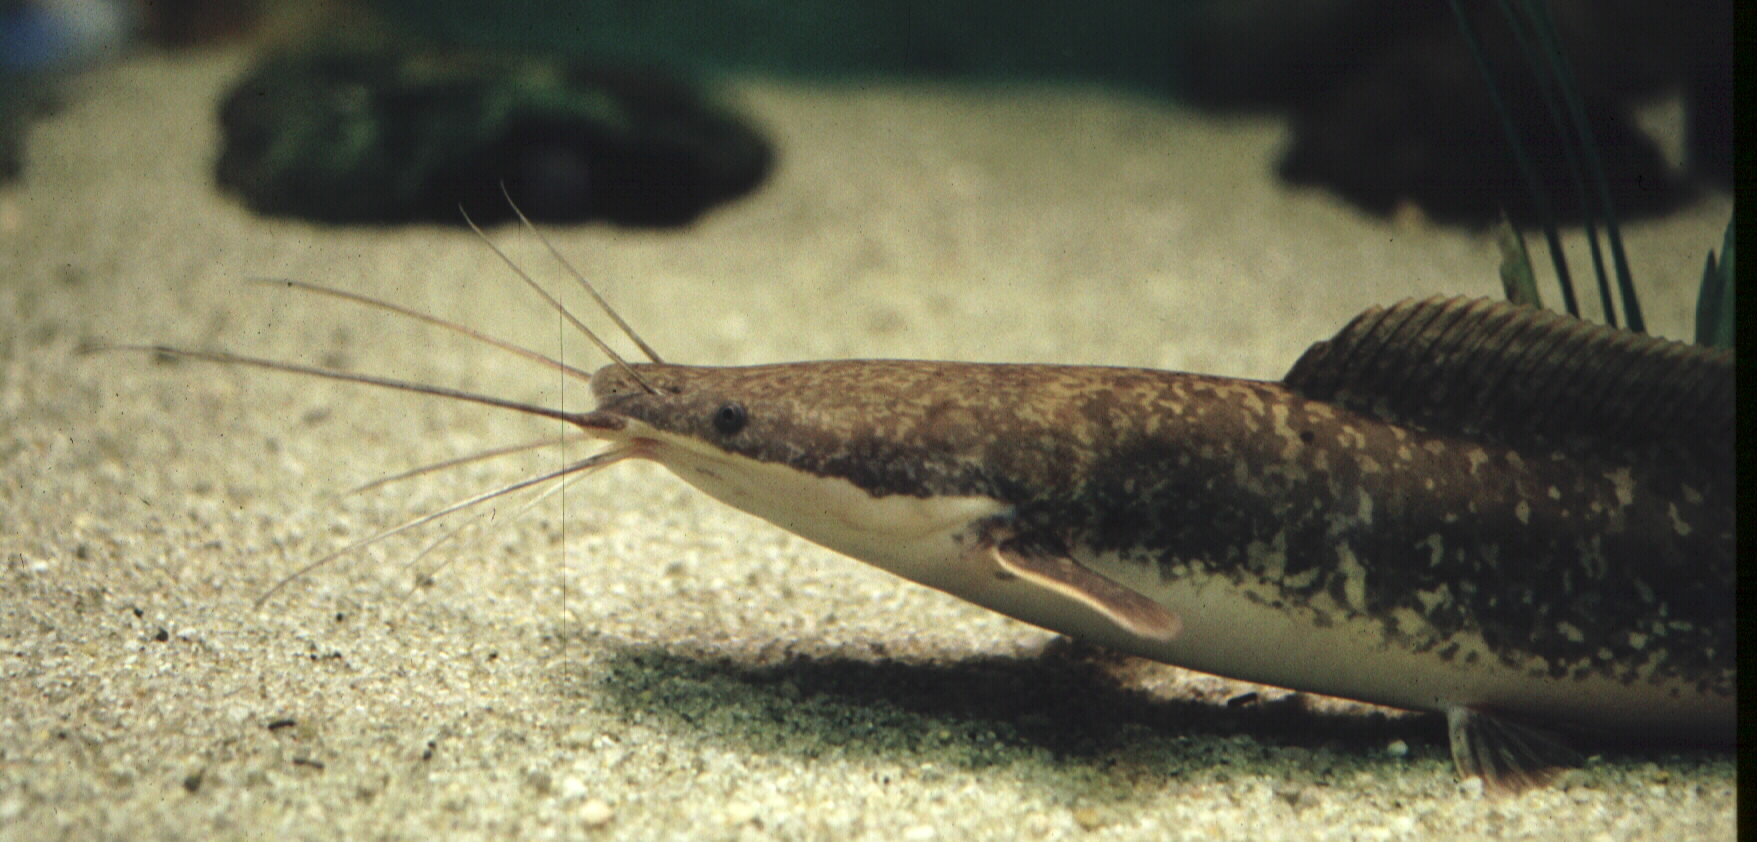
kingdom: Animalia
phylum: Chordata
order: Siluriformes
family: Clariidae
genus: Clarias
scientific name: Clarias gariepinus
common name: African catfish
